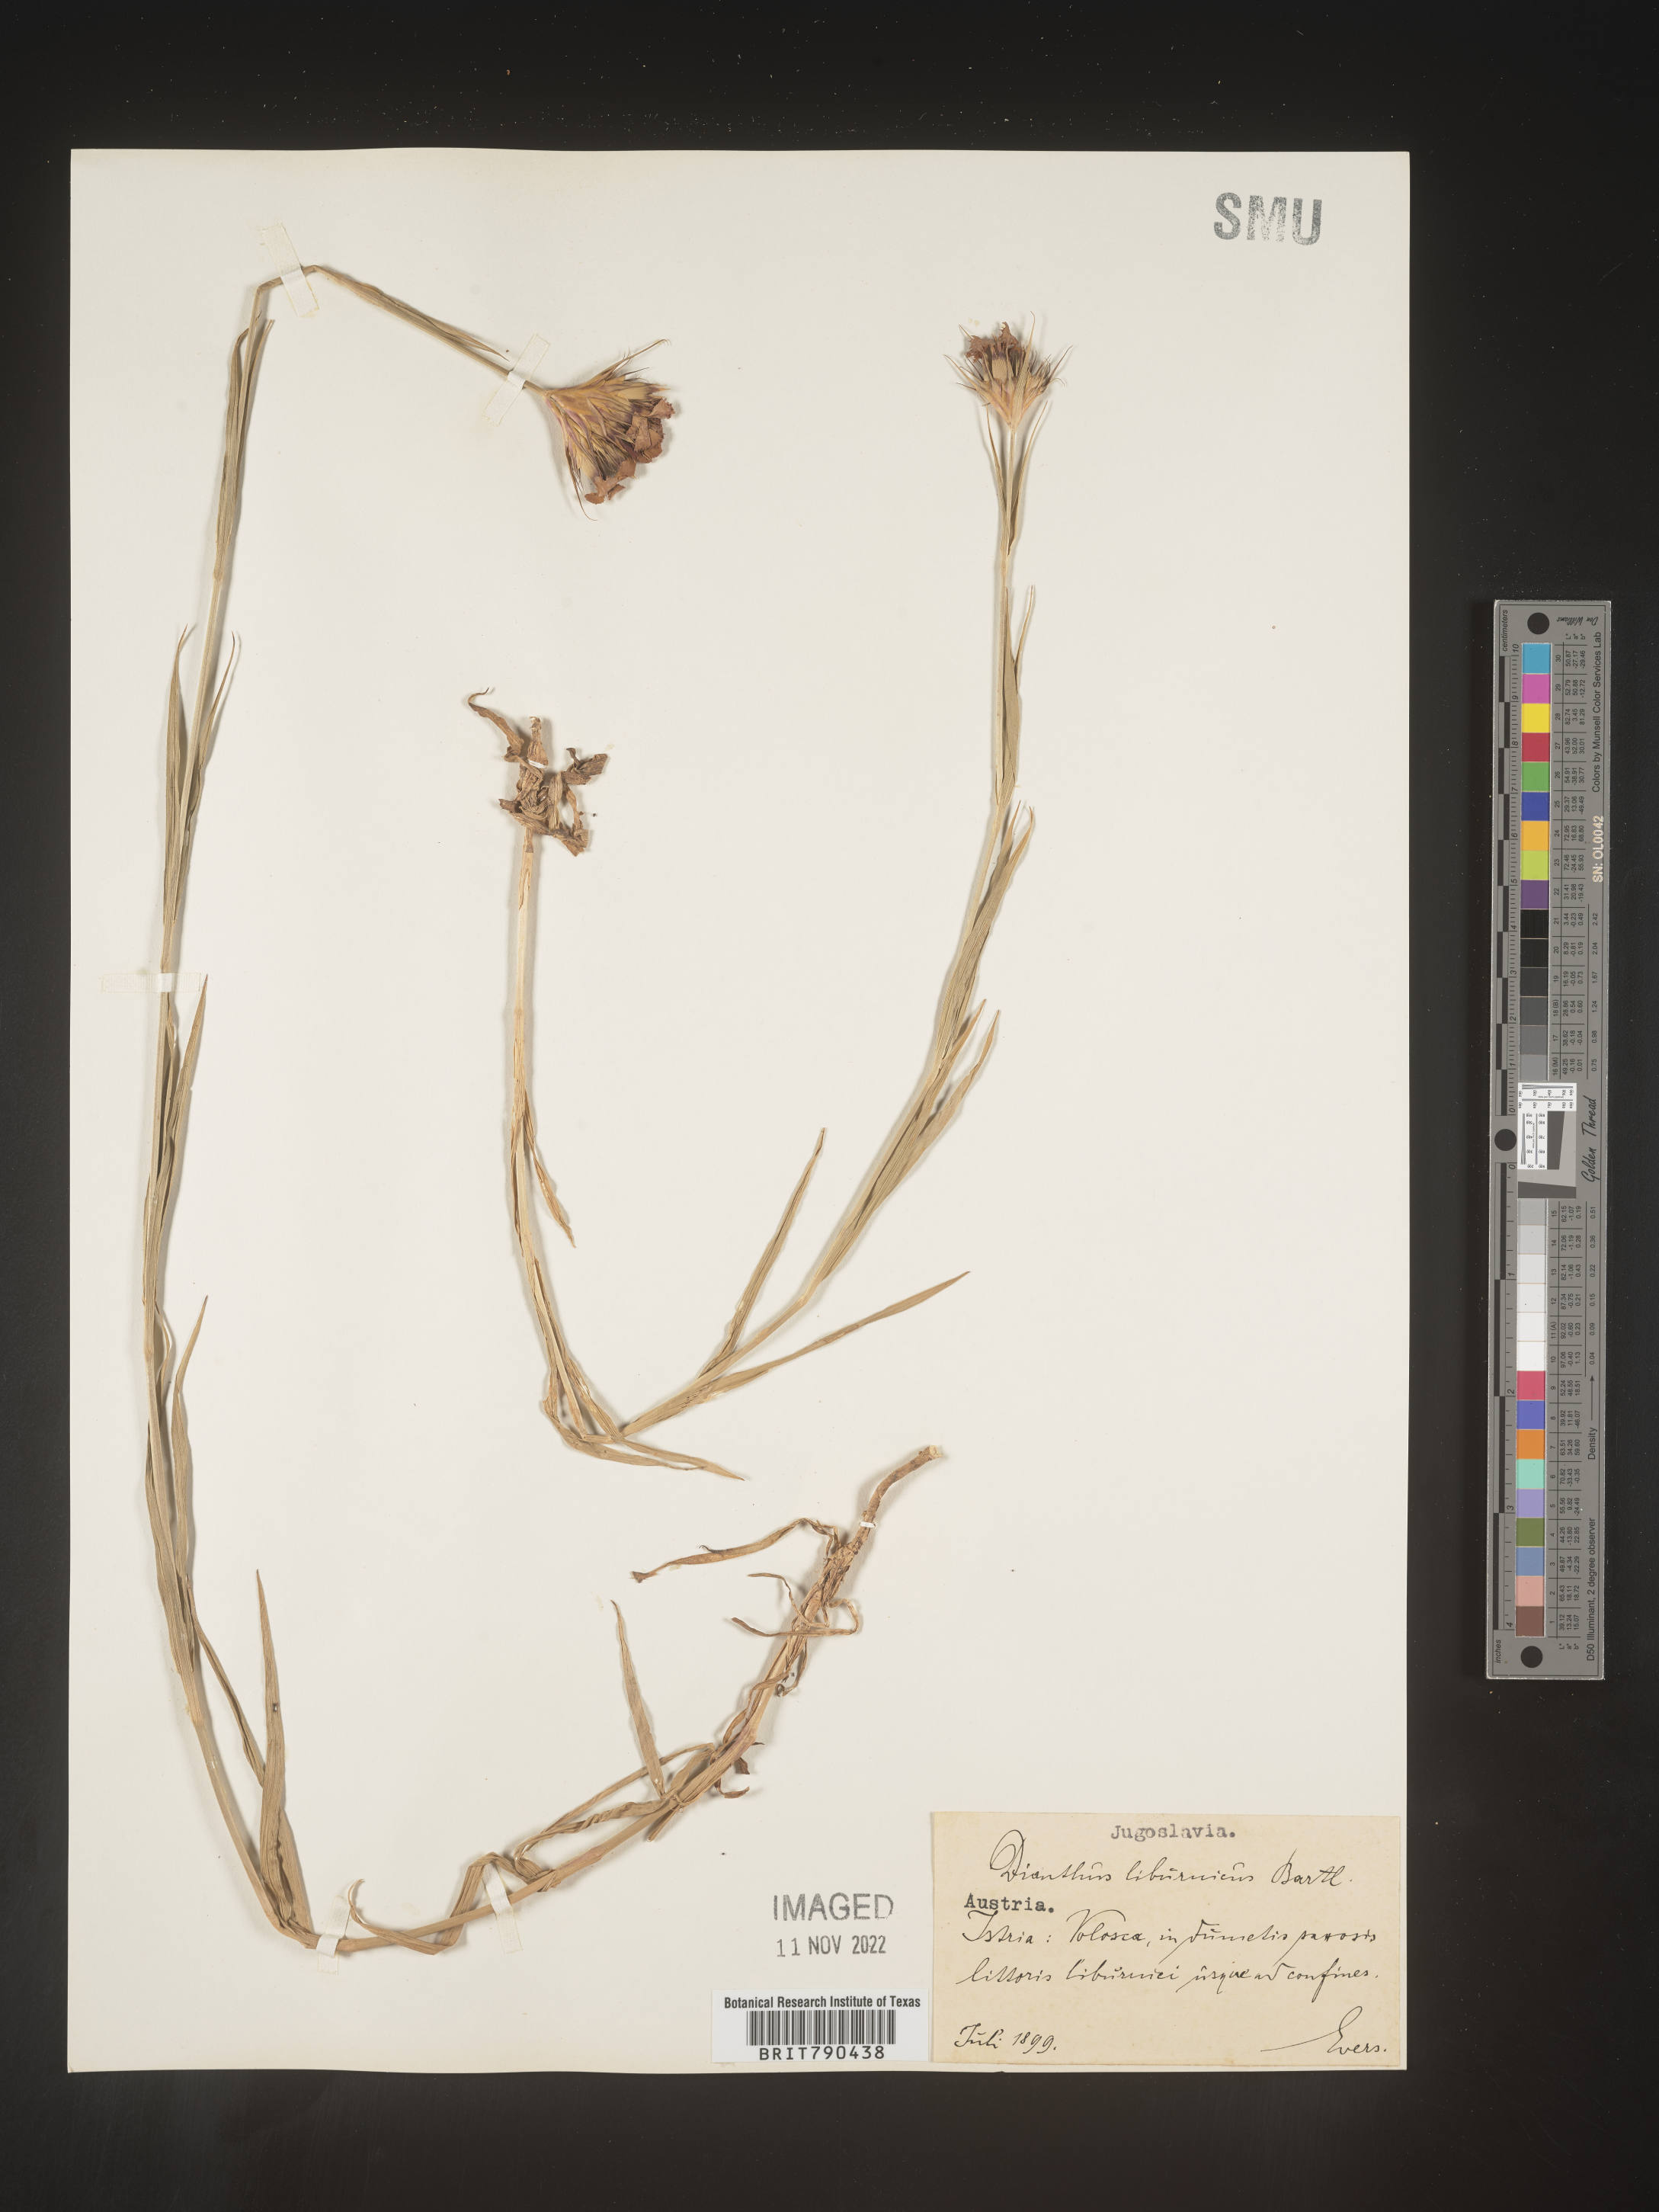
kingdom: Plantae
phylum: Tracheophyta
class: Magnoliopsida
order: Caryophyllales
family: Caryophyllaceae
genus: Dianthus
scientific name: Dianthus
